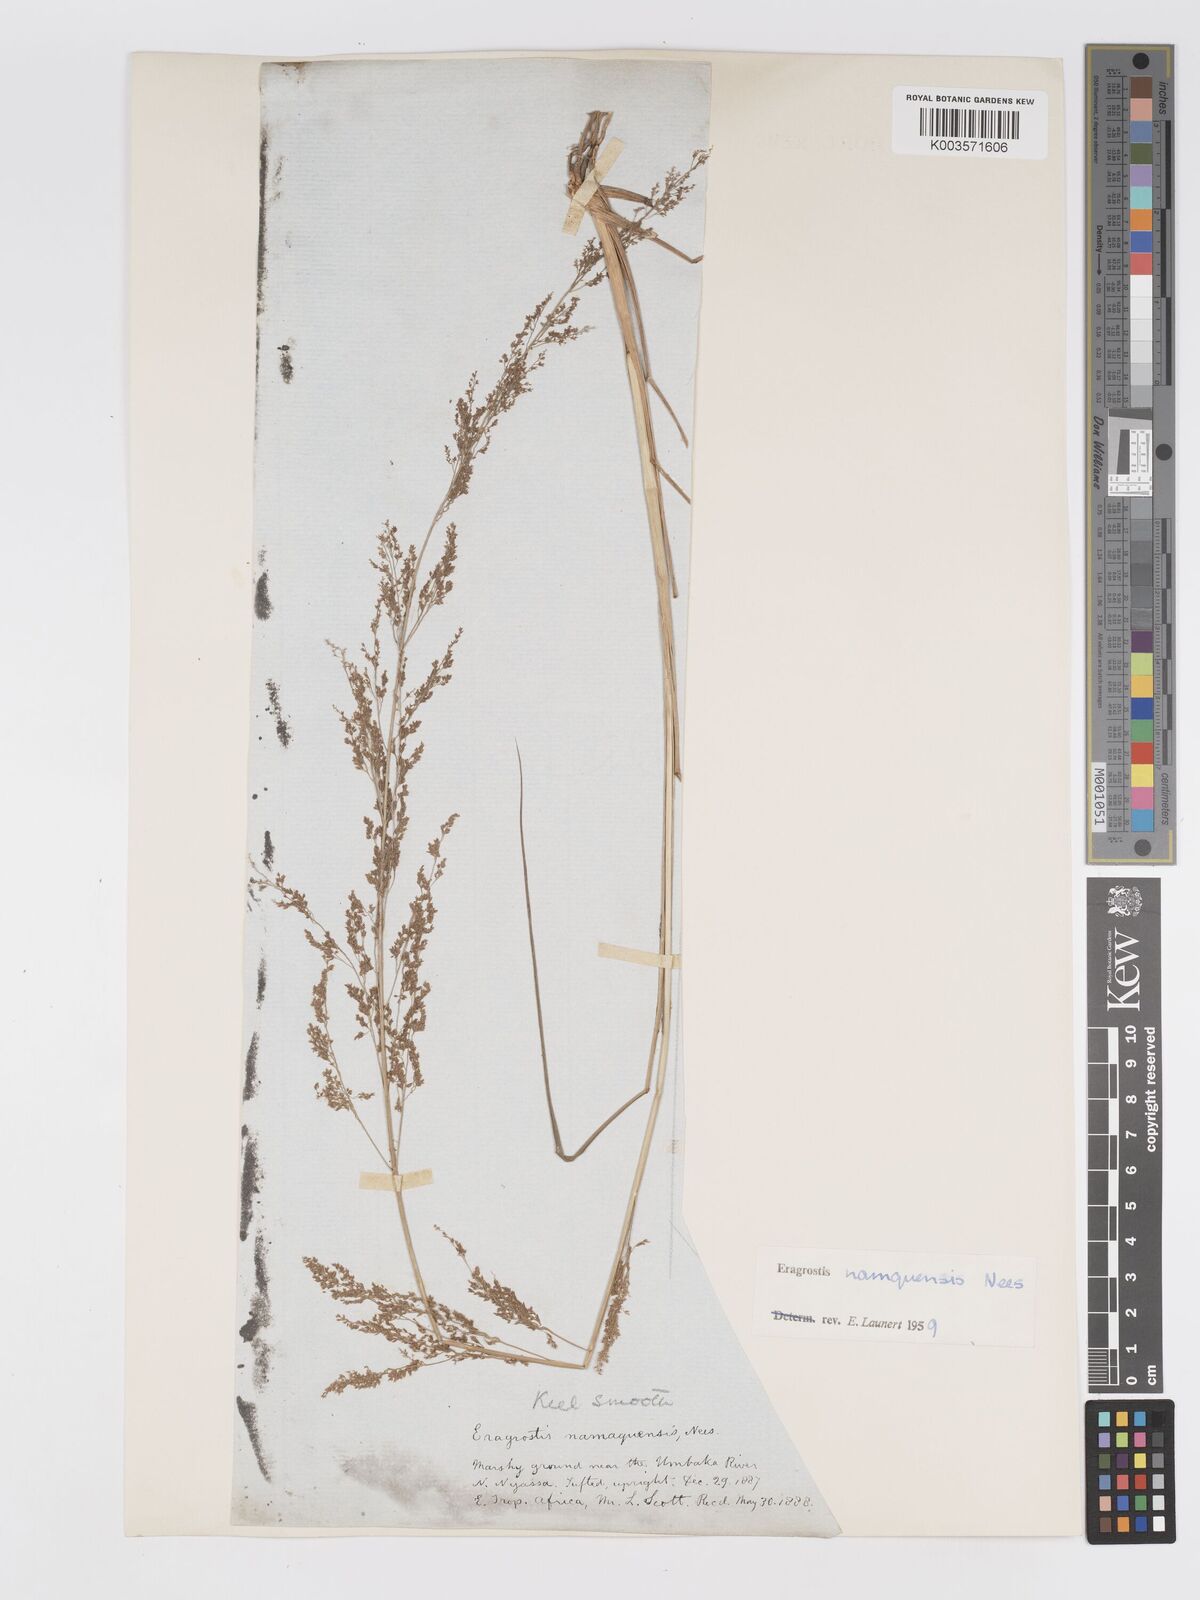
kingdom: Plantae
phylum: Tracheophyta
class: Liliopsida
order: Poales
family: Poaceae
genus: Eragrostis
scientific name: Eragrostis japonica
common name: Pond lovegrass
